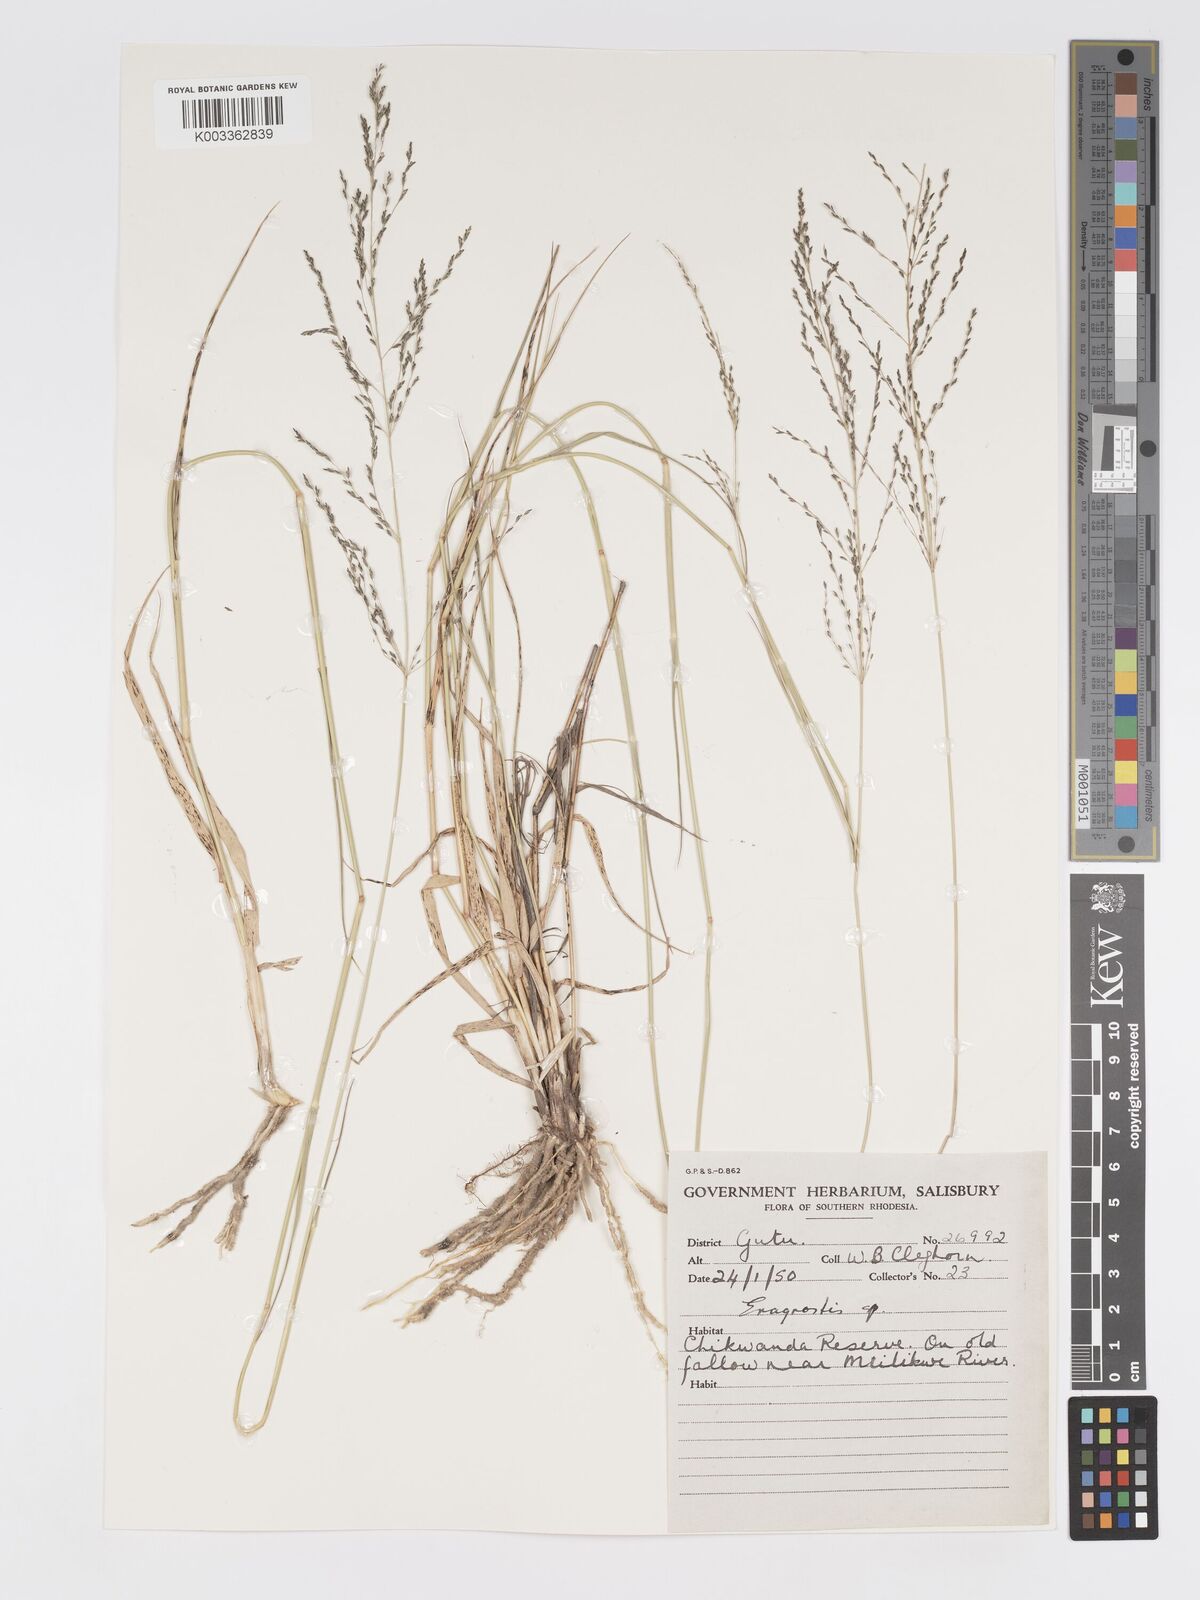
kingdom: Plantae
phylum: Tracheophyta
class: Liliopsida
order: Poales
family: Poaceae
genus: Eragrostis
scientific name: Eragrostis cylindriflora
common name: Cylinderflower lovegrass
